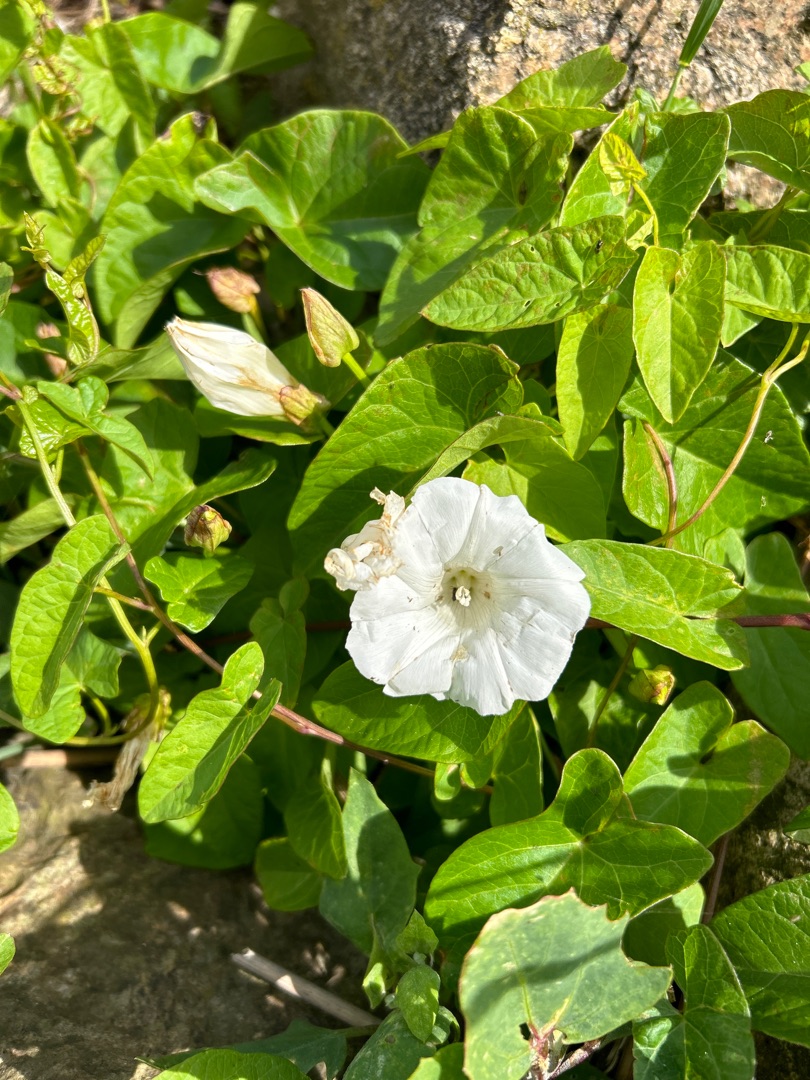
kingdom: Plantae
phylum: Tracheophyta
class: Magnoliopsida
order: Solanales
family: Convolvulaceae
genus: Calystegia
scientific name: Calystegia sepium
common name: Gærde-snerle
